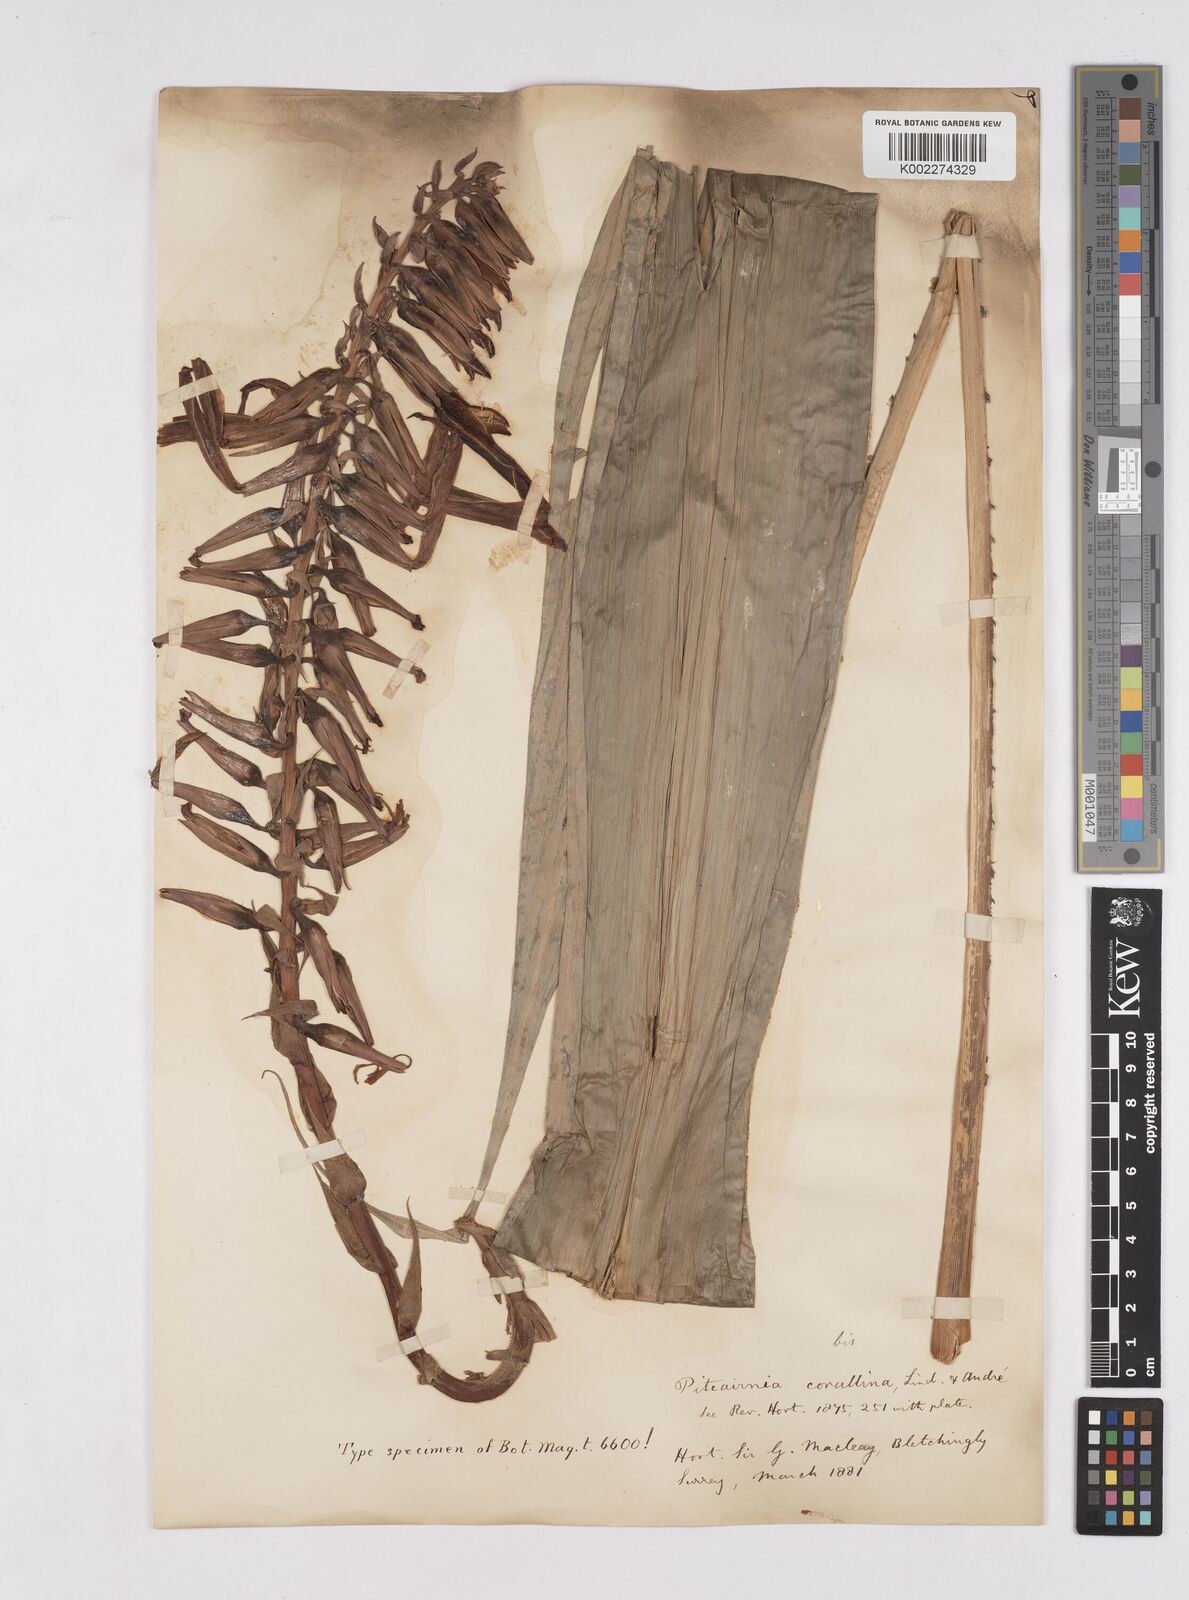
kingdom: Plantae
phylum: Tracheophyta
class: Liliopsida
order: Poales
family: Bromeliaceae
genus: Pitcairnia
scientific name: Pitcairnia corallina
